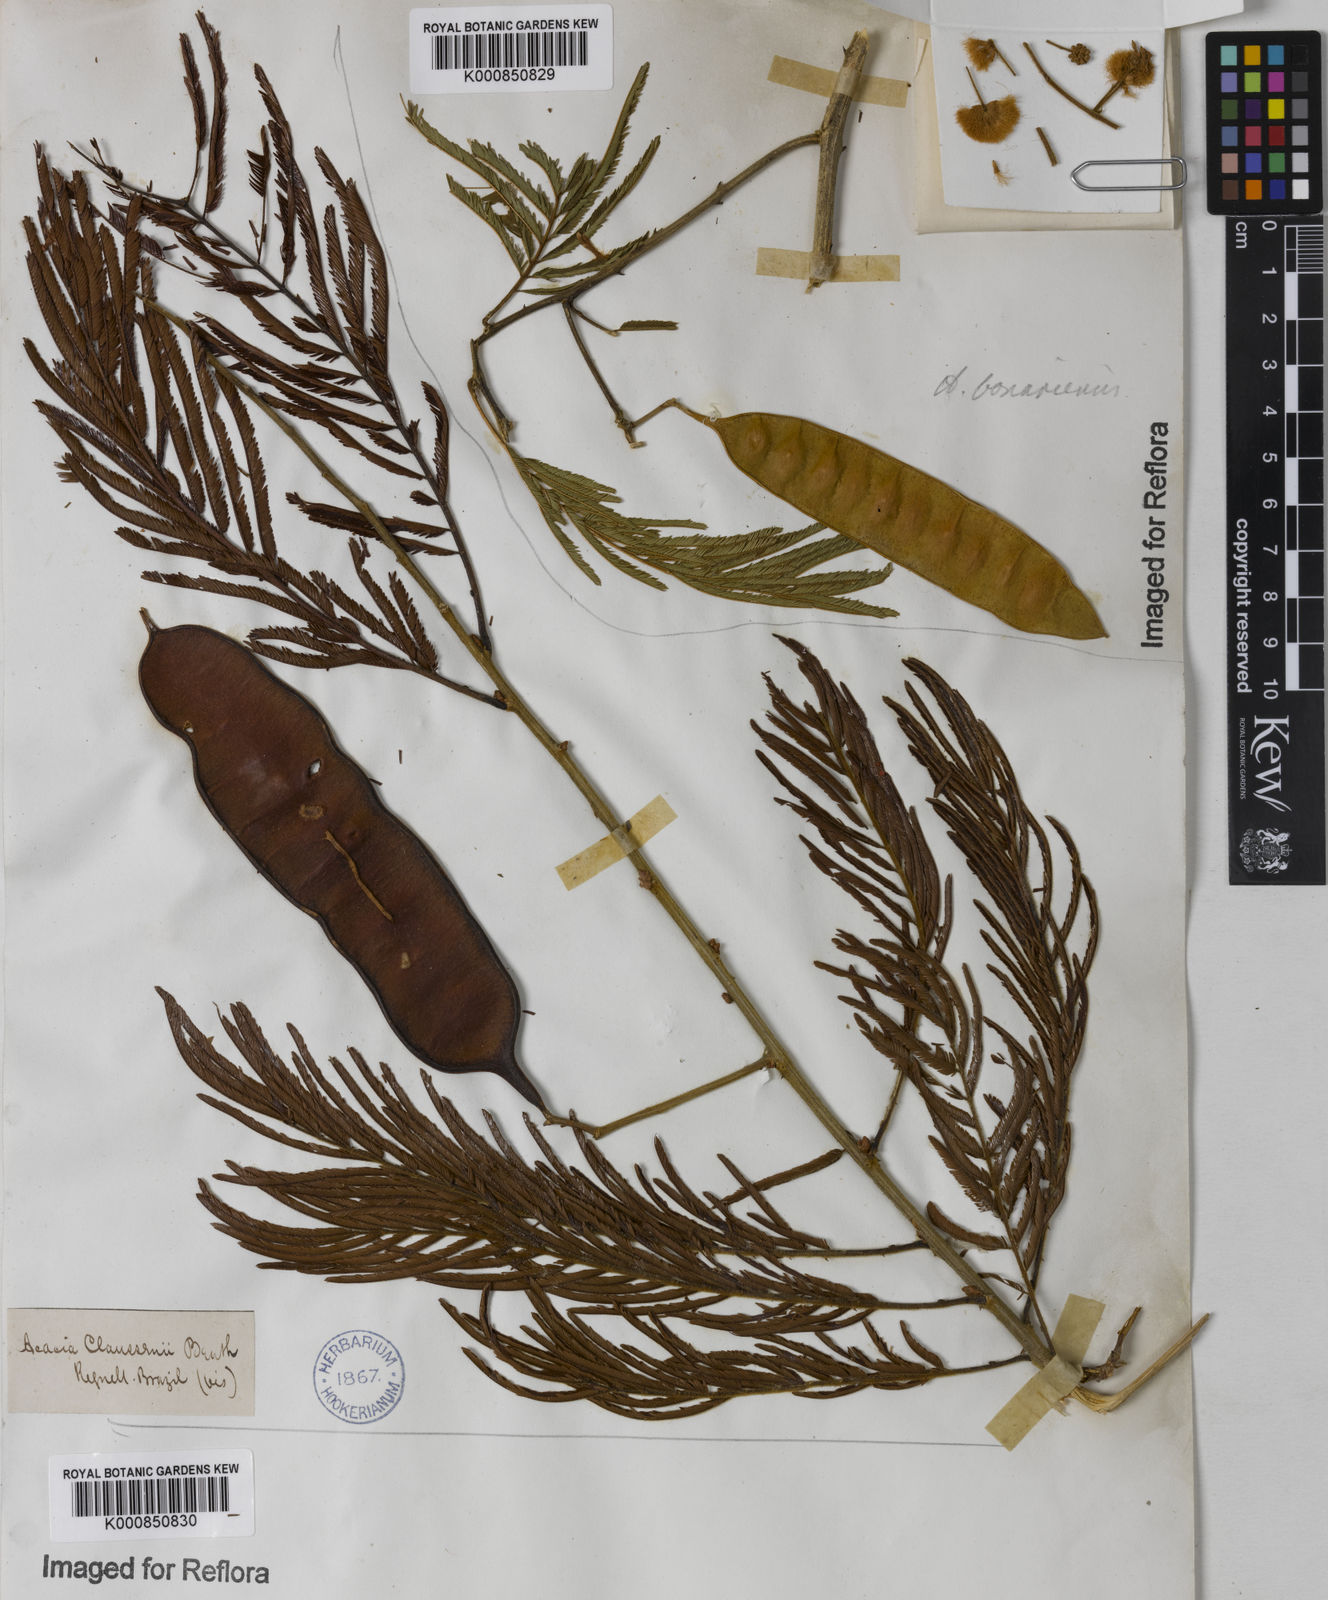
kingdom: Plantae
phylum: Tracheophyta
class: Magnoliopsida
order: Fabales
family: Fabaceae
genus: Senegalia
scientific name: Senegalia tenuifolia
